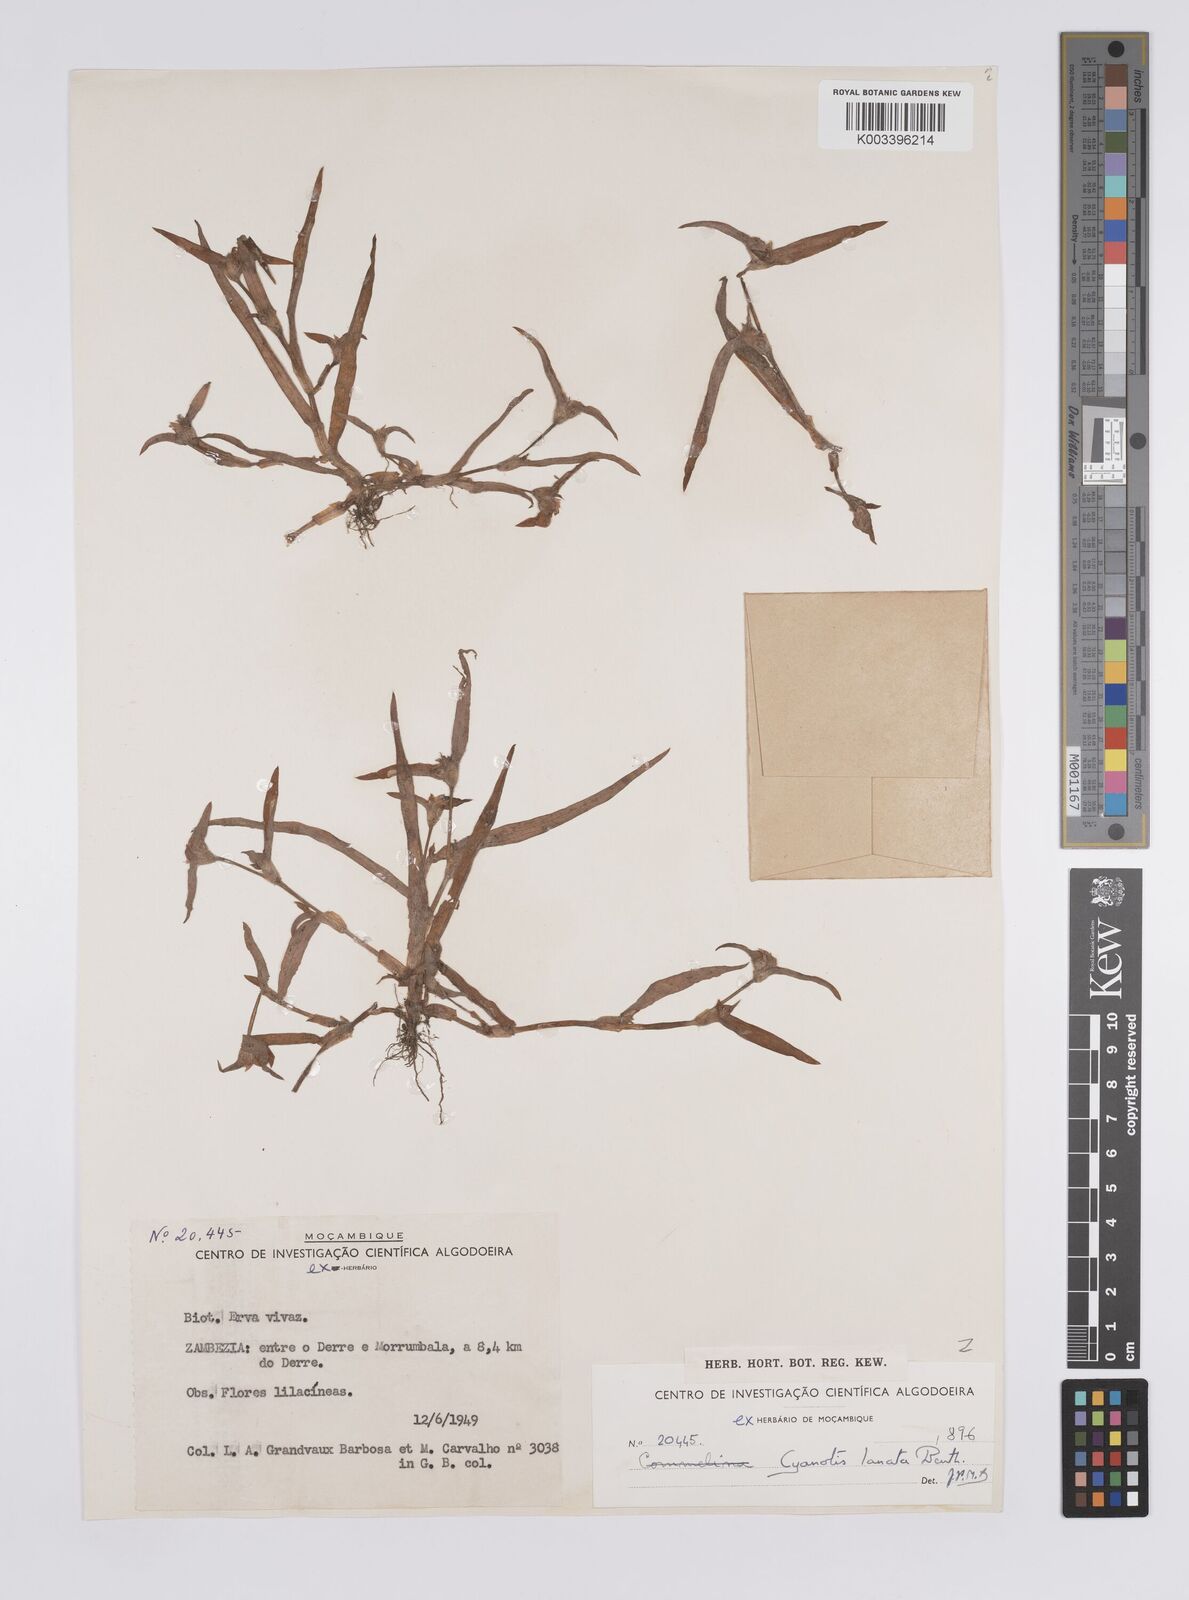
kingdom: Plantae
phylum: Tracheophyta
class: Liliopsida
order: Commelinales
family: Commelinaceae
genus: Cyanotis
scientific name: Cyanotis lanata
